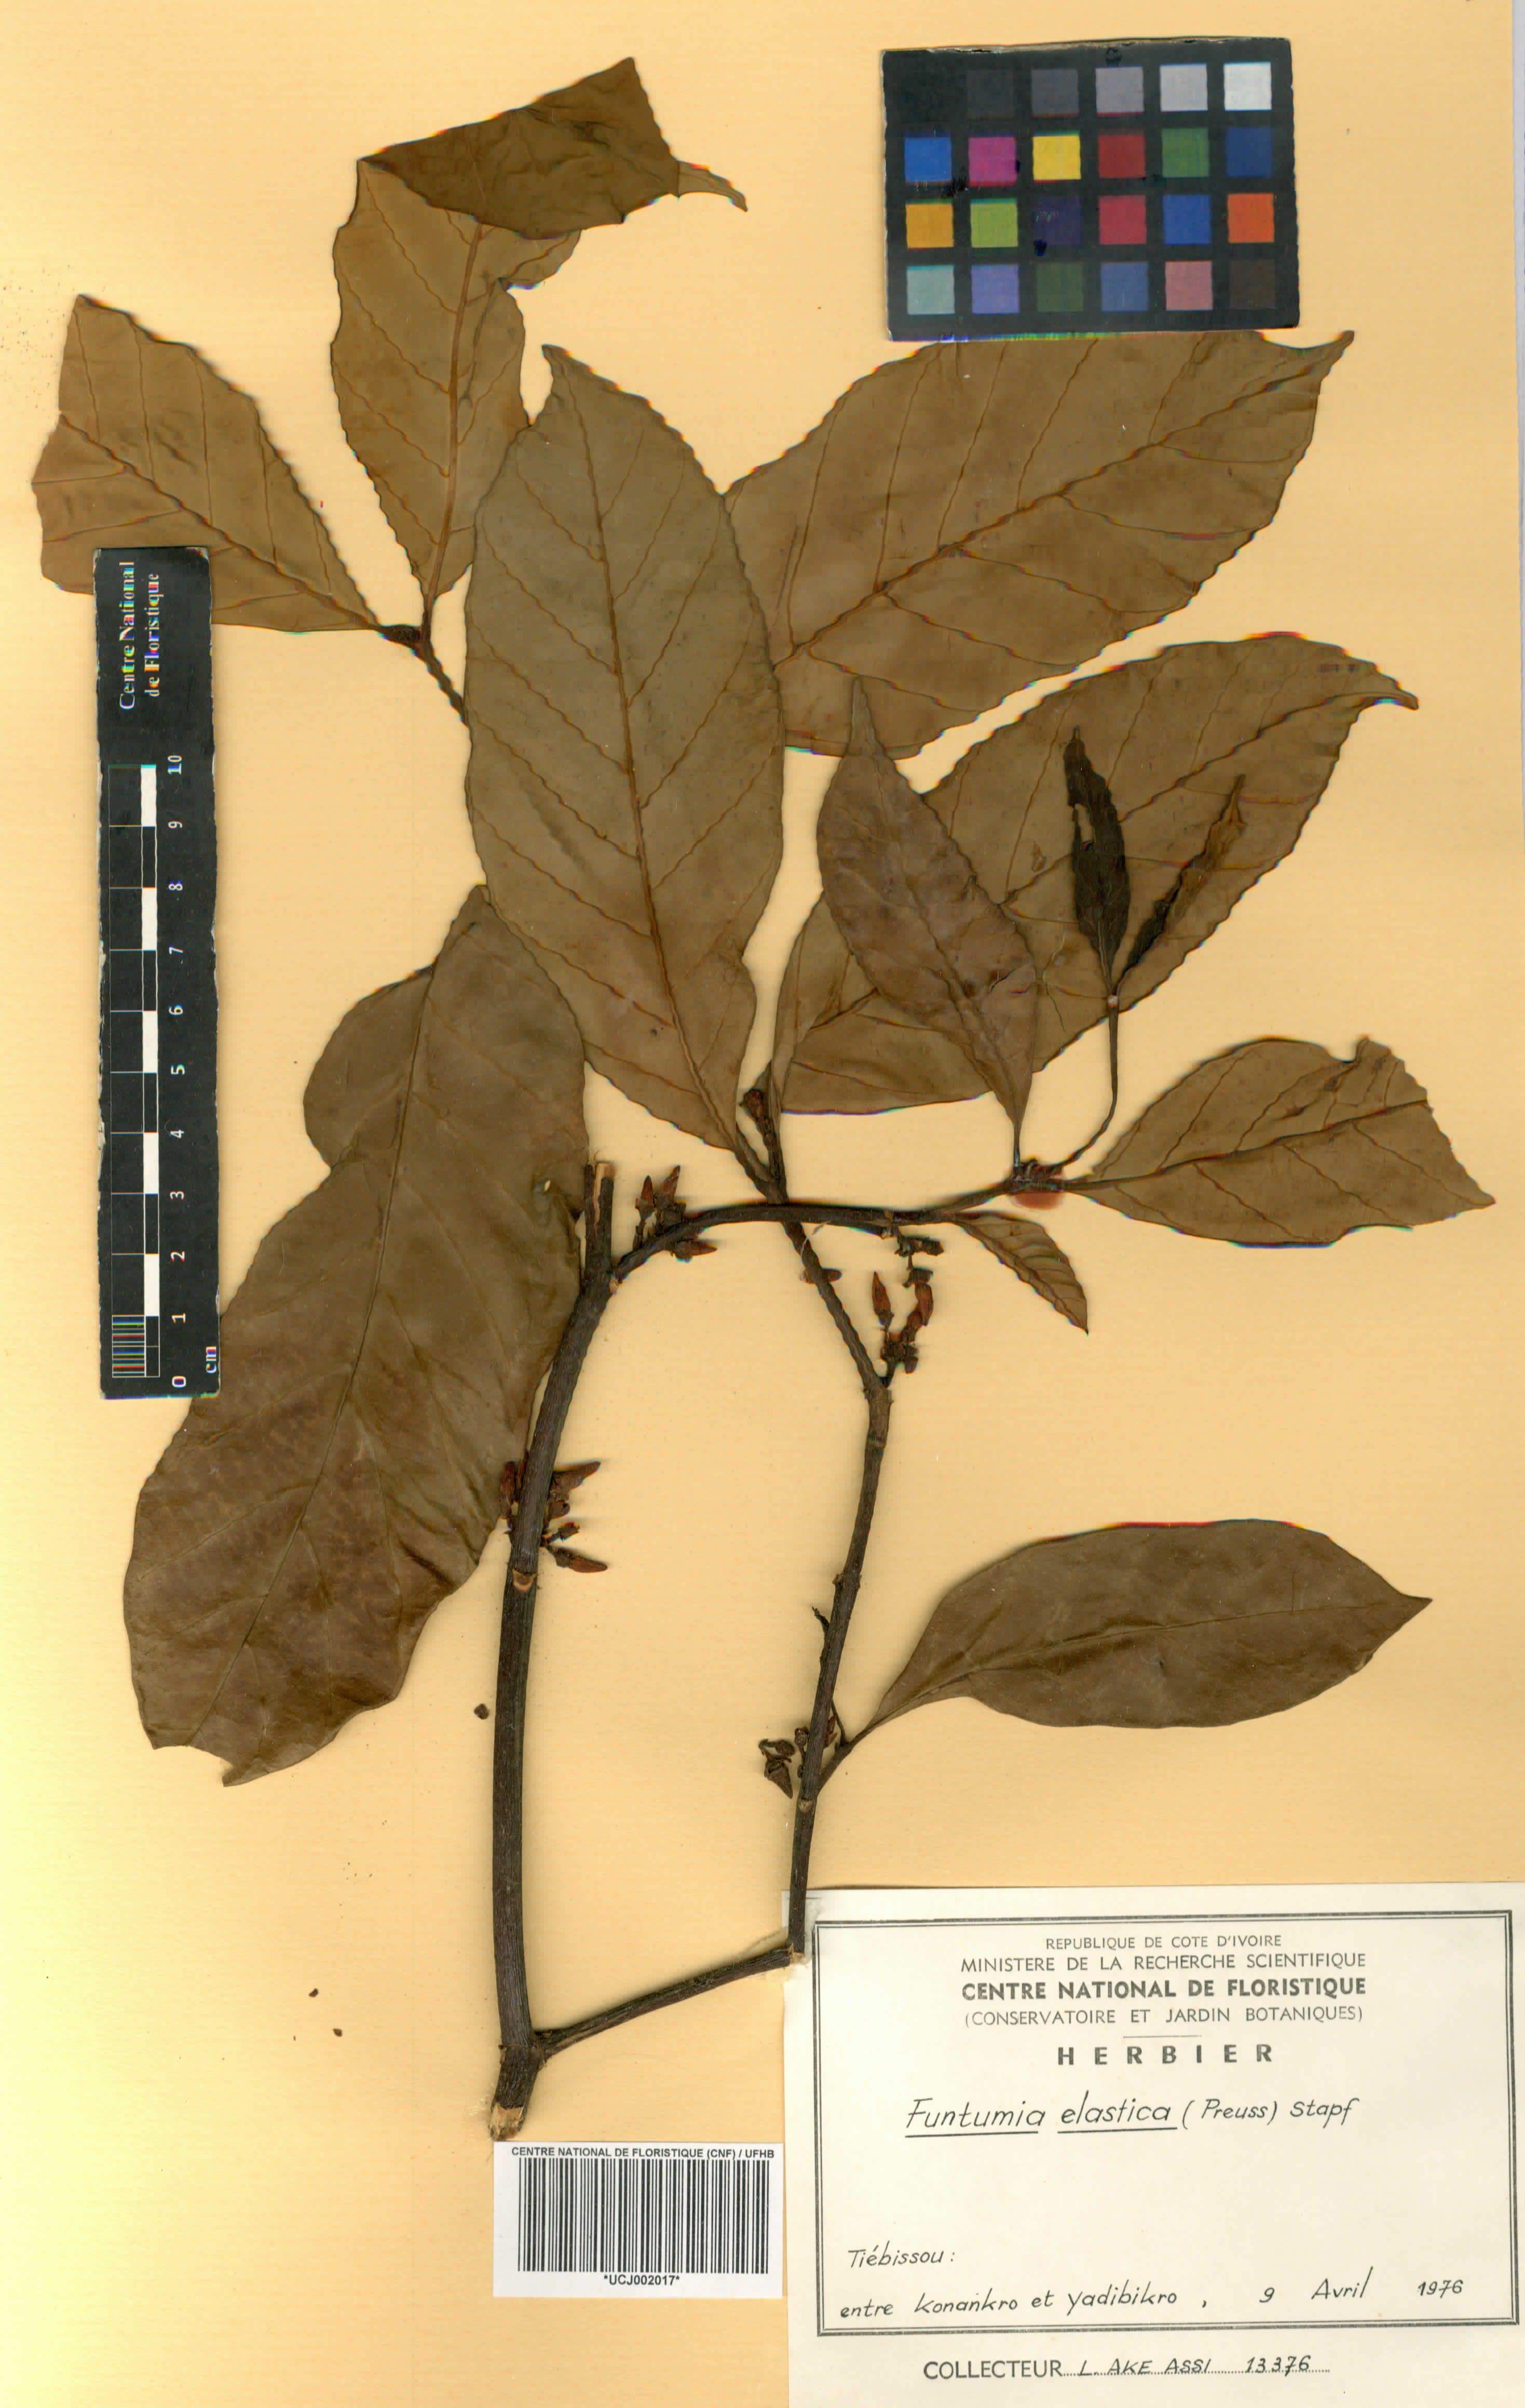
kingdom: Plantae
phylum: Tracheophyta
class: Magnoliopsida
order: Gentianales
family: Apocynaceae
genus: Funtumia
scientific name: Funtumia elastica
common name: Silkrubber
